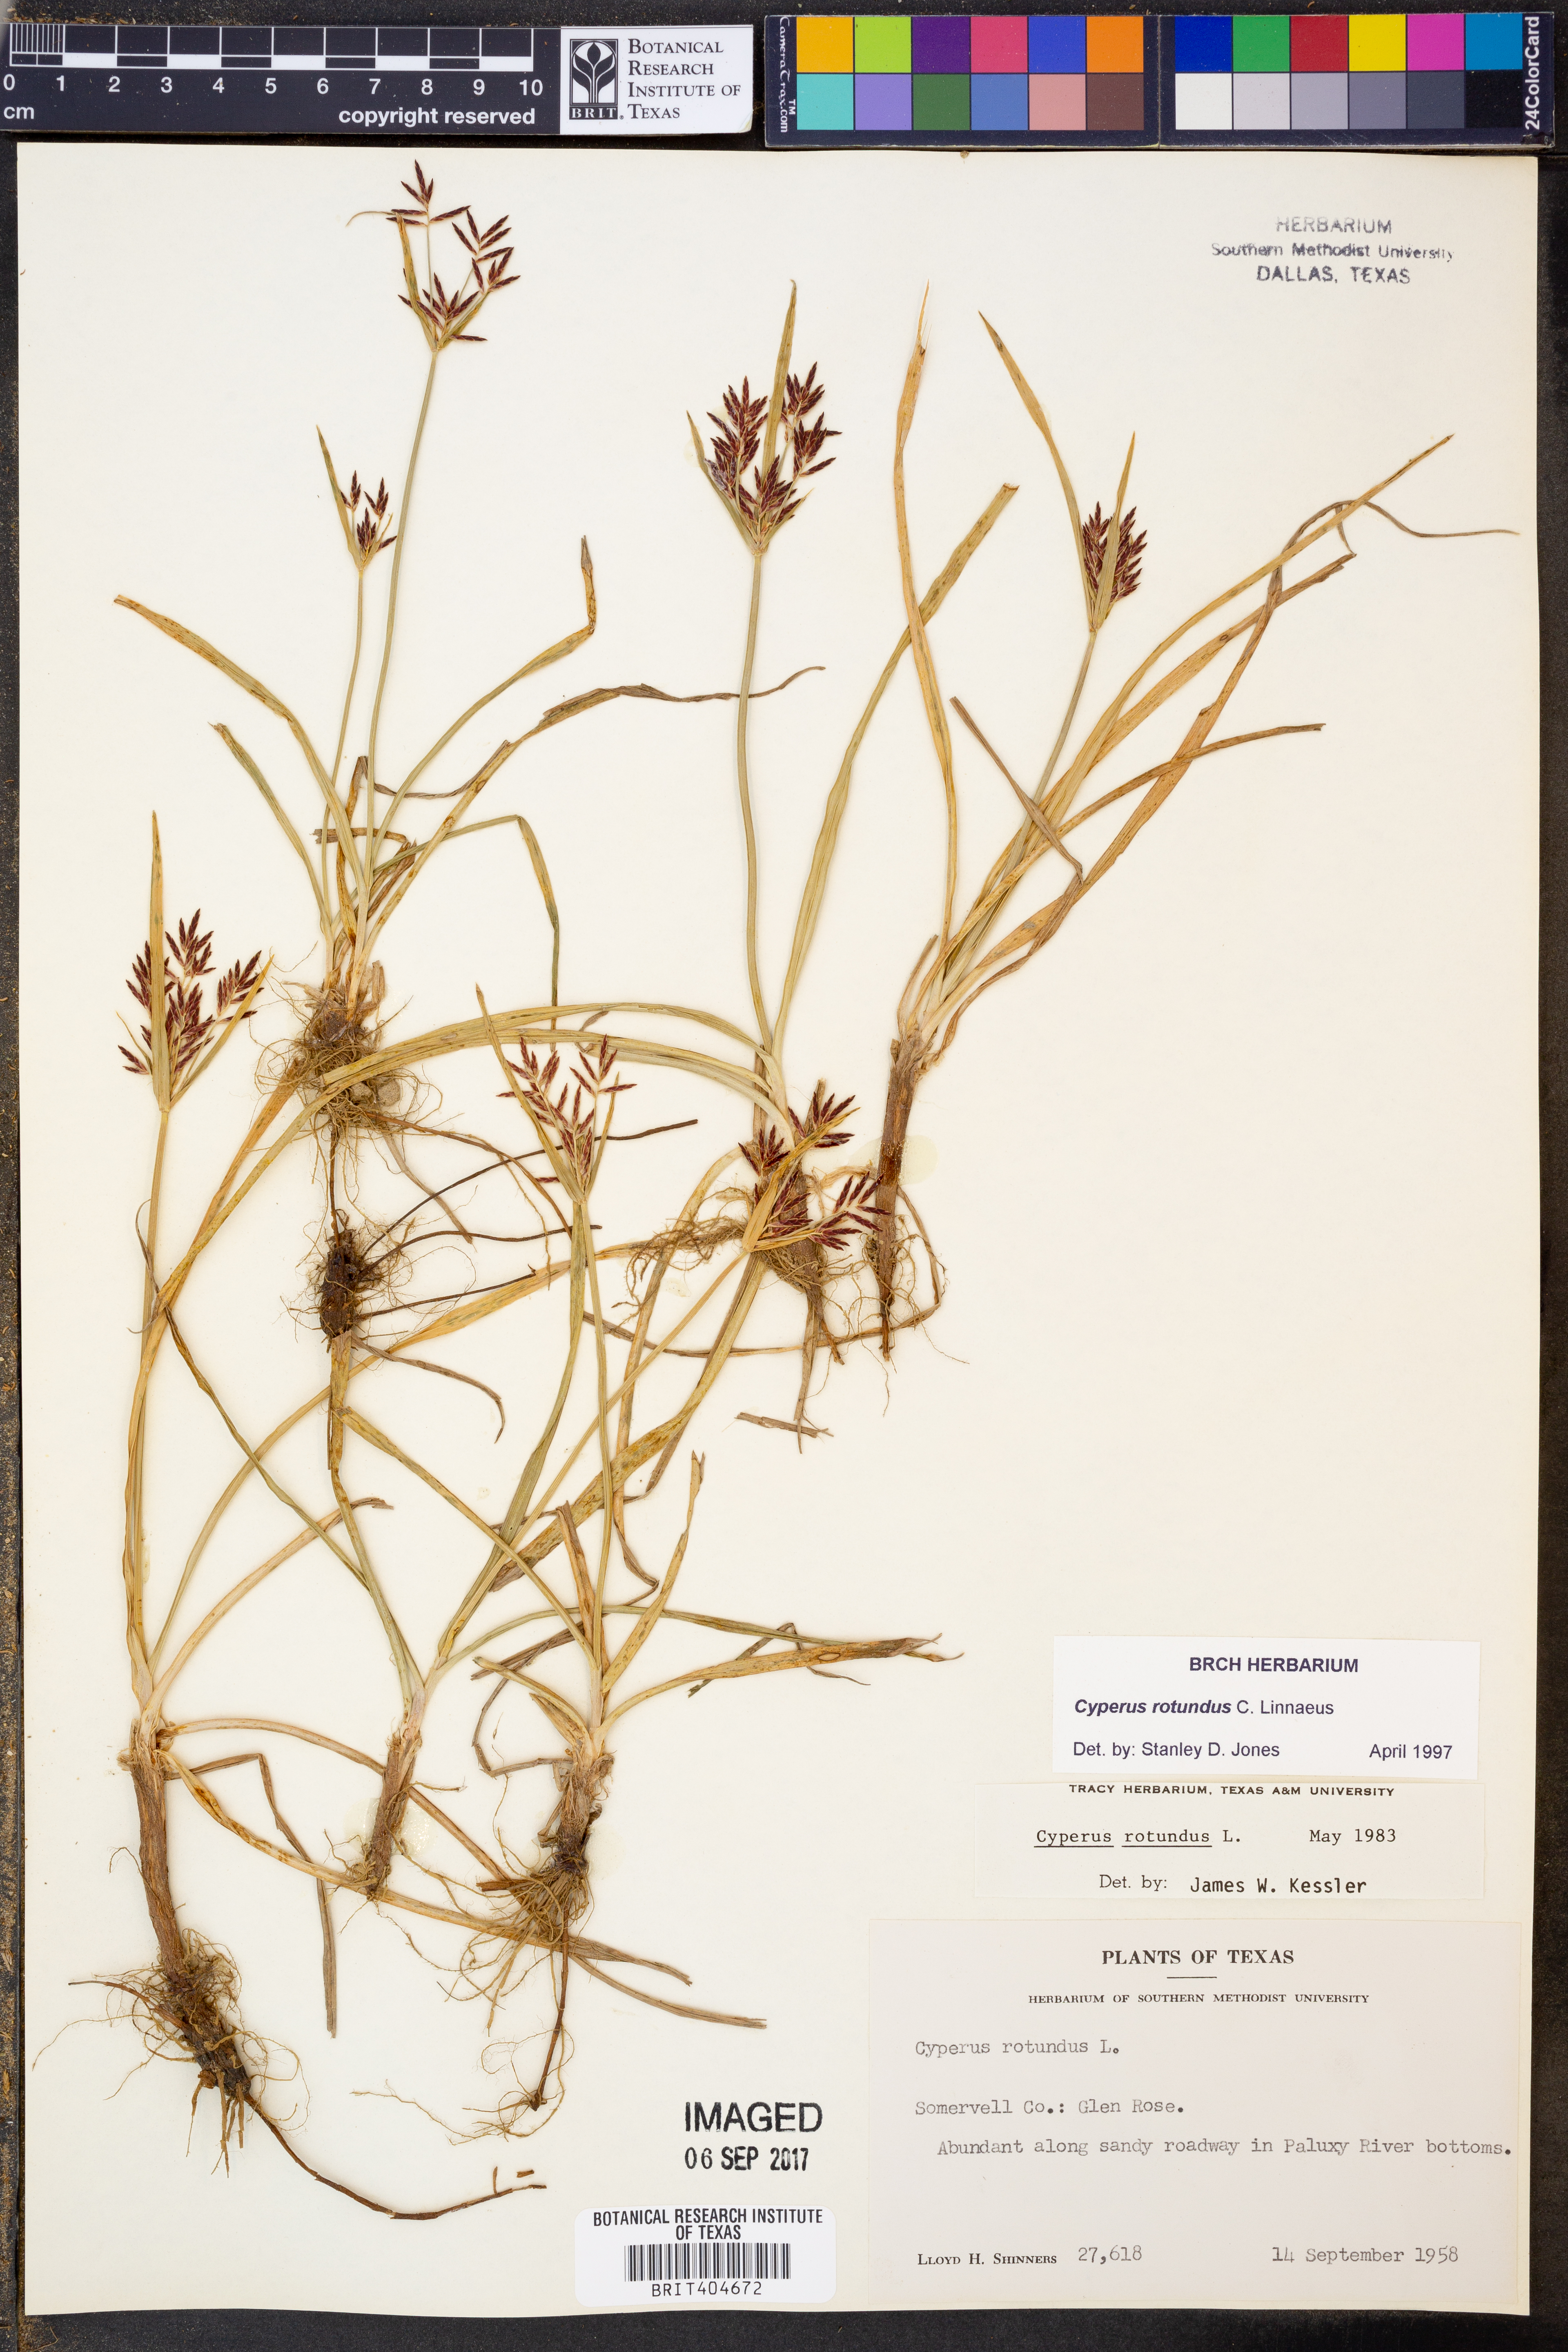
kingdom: Plantae
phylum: Tracheophyta
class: Liliopsida
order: Poales
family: Cyperaceae
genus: Cyperus
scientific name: Cyperus rotundus
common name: Nutgrass
